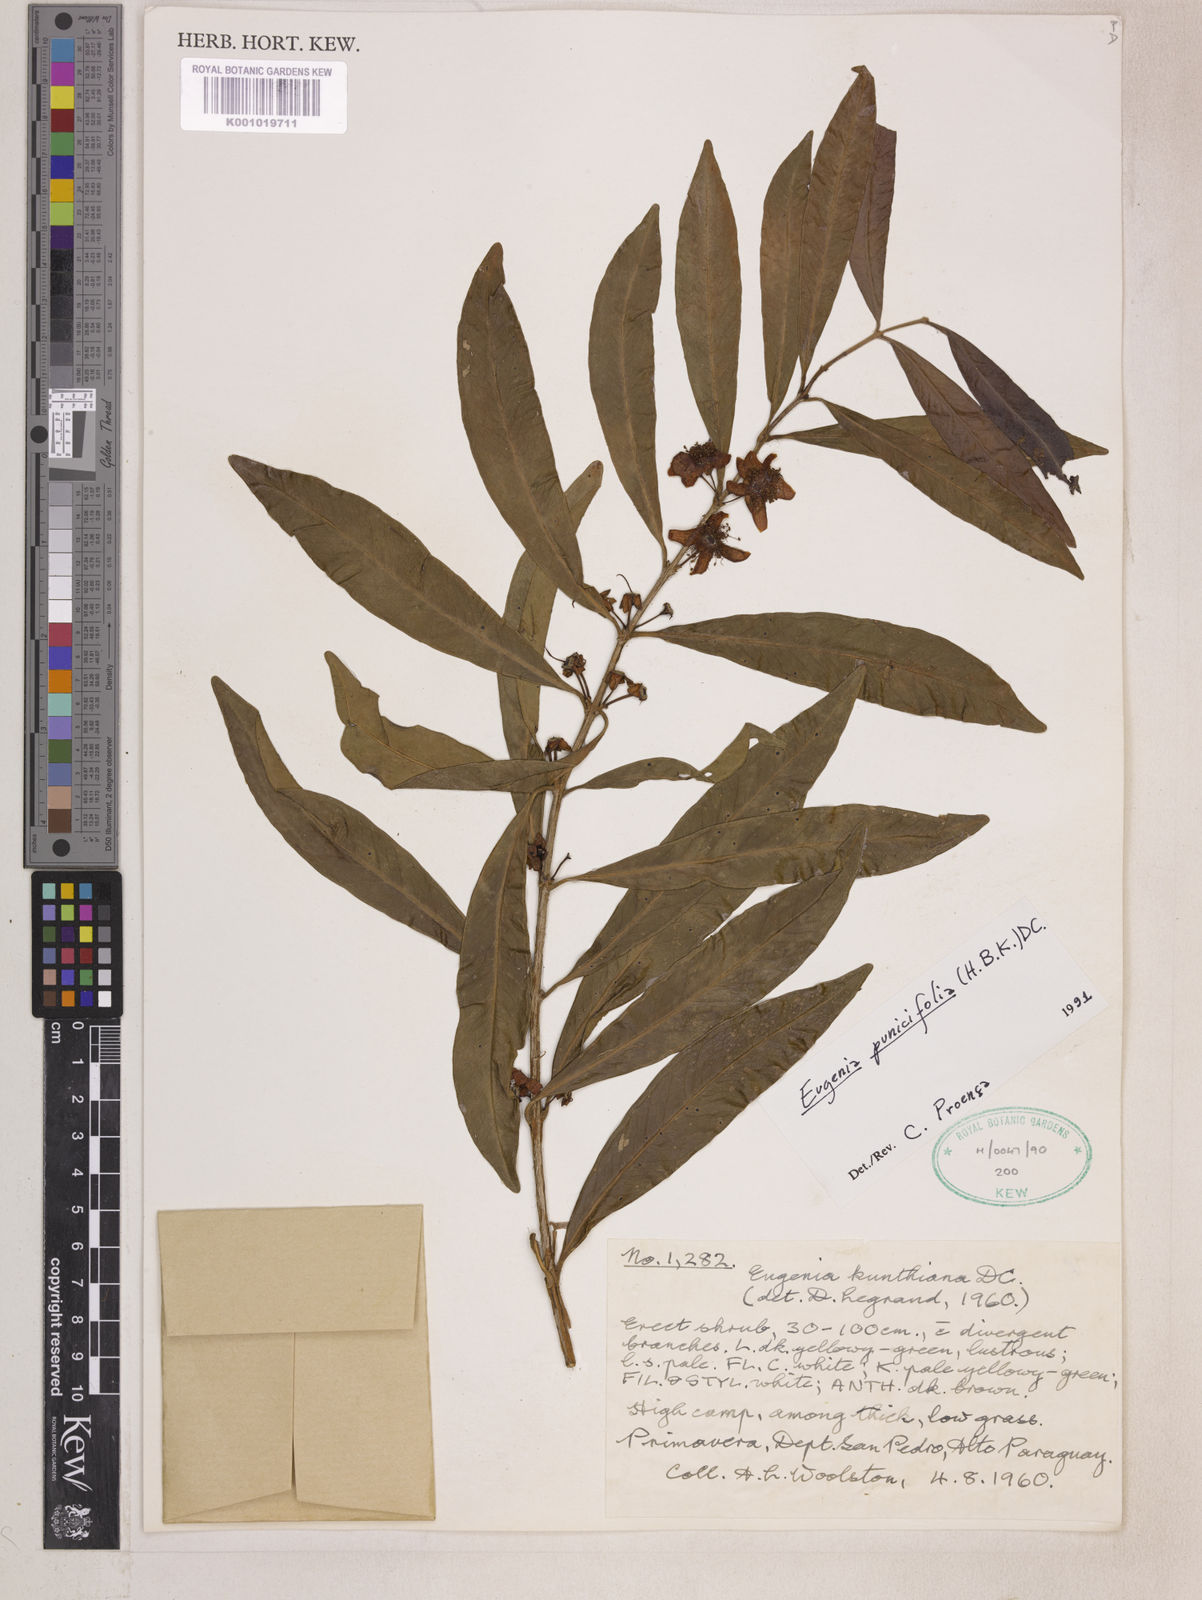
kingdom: Plantae
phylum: Tracheophyta
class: Magnoliopsida
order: Myrtales
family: Myrtaceae
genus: Eugenia
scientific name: Eugenia punicifolia
